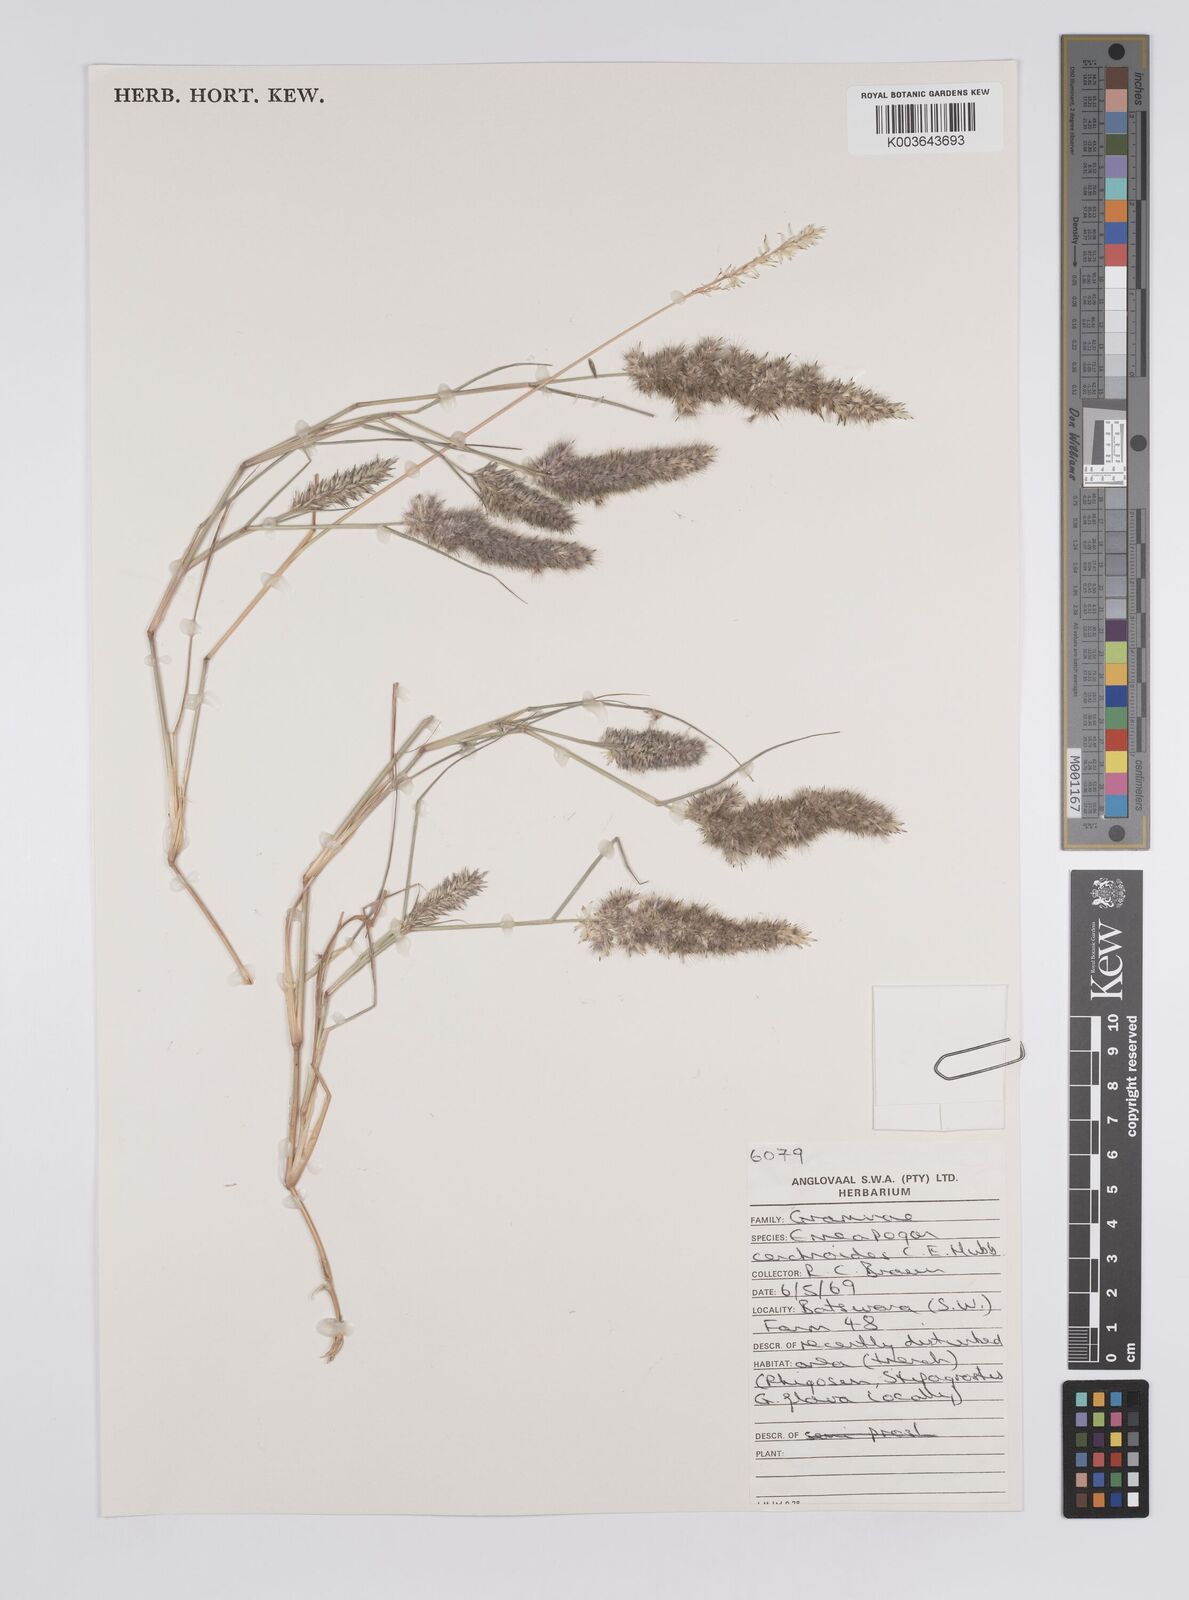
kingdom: Plantae
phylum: Tracheophyta
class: Liliopsida
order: Poales
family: Poaceae
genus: Enneapogon
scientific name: Enneapogon cenchroides
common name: Soft feather pappusgrass
